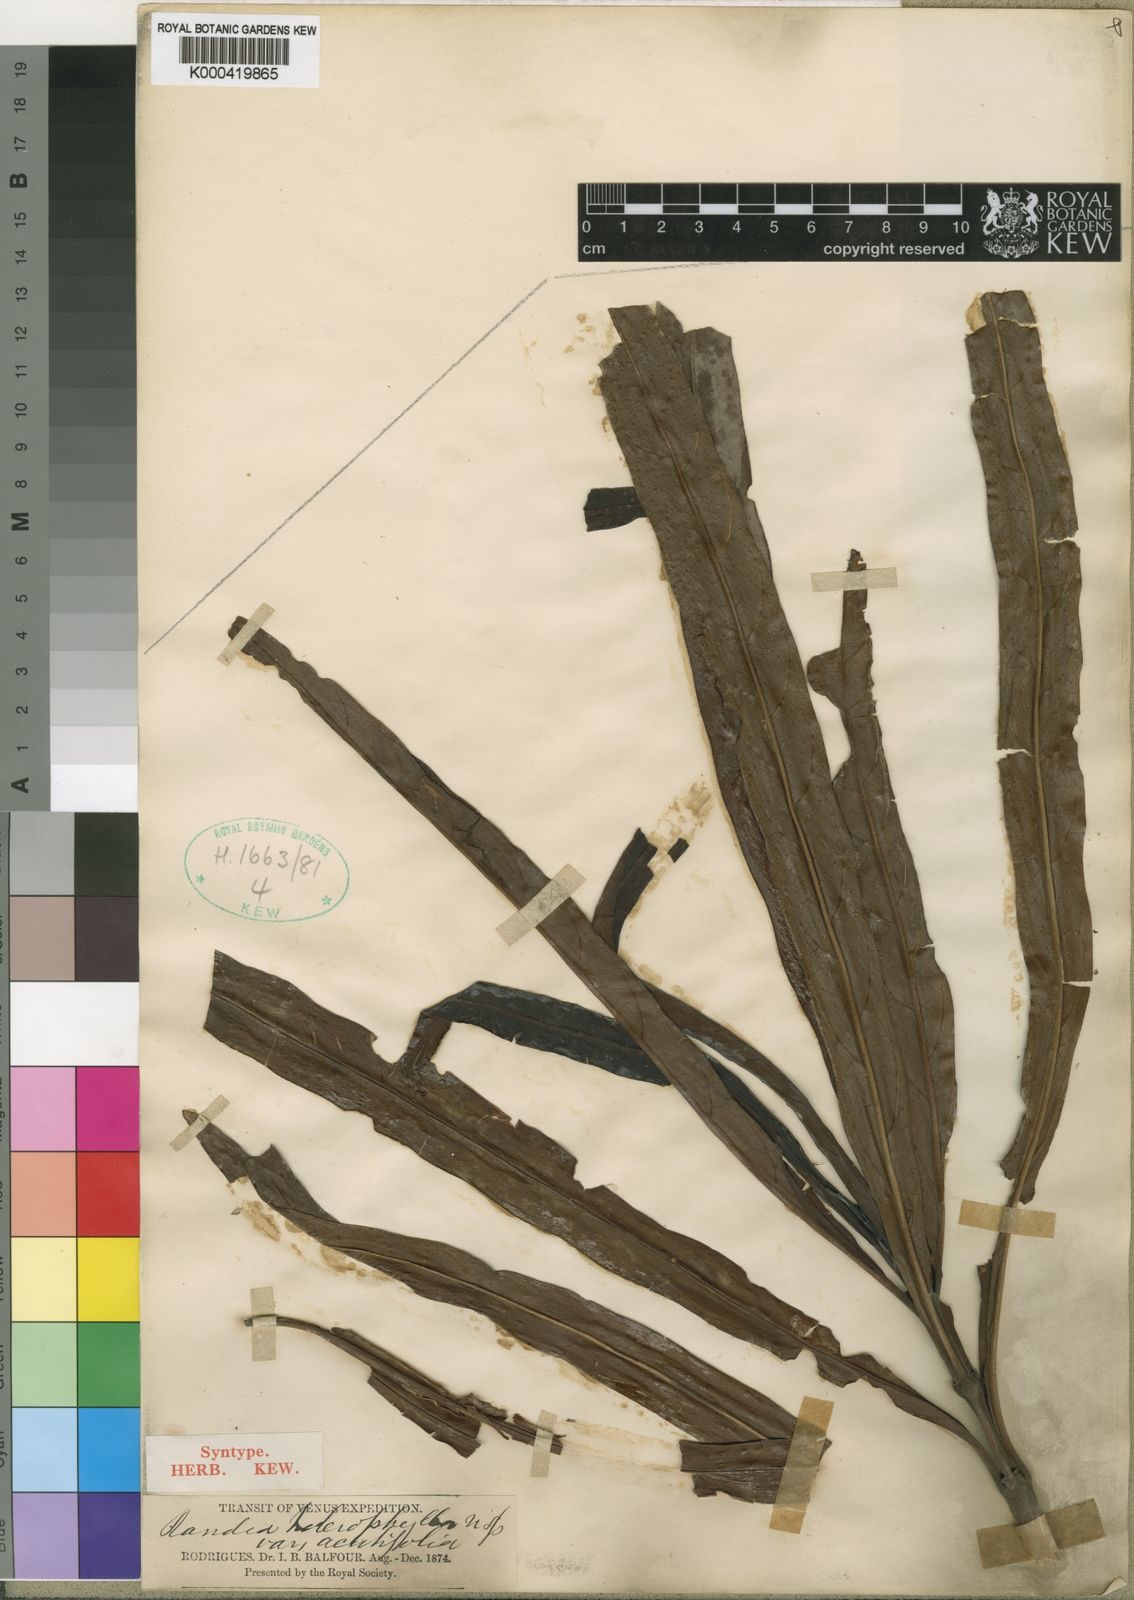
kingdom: Plantae
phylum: Tracheophyta
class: Magnoliopsida
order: Gentianales
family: Rubiaceae
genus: Ramosmania
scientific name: Ramosmania heterophylla
